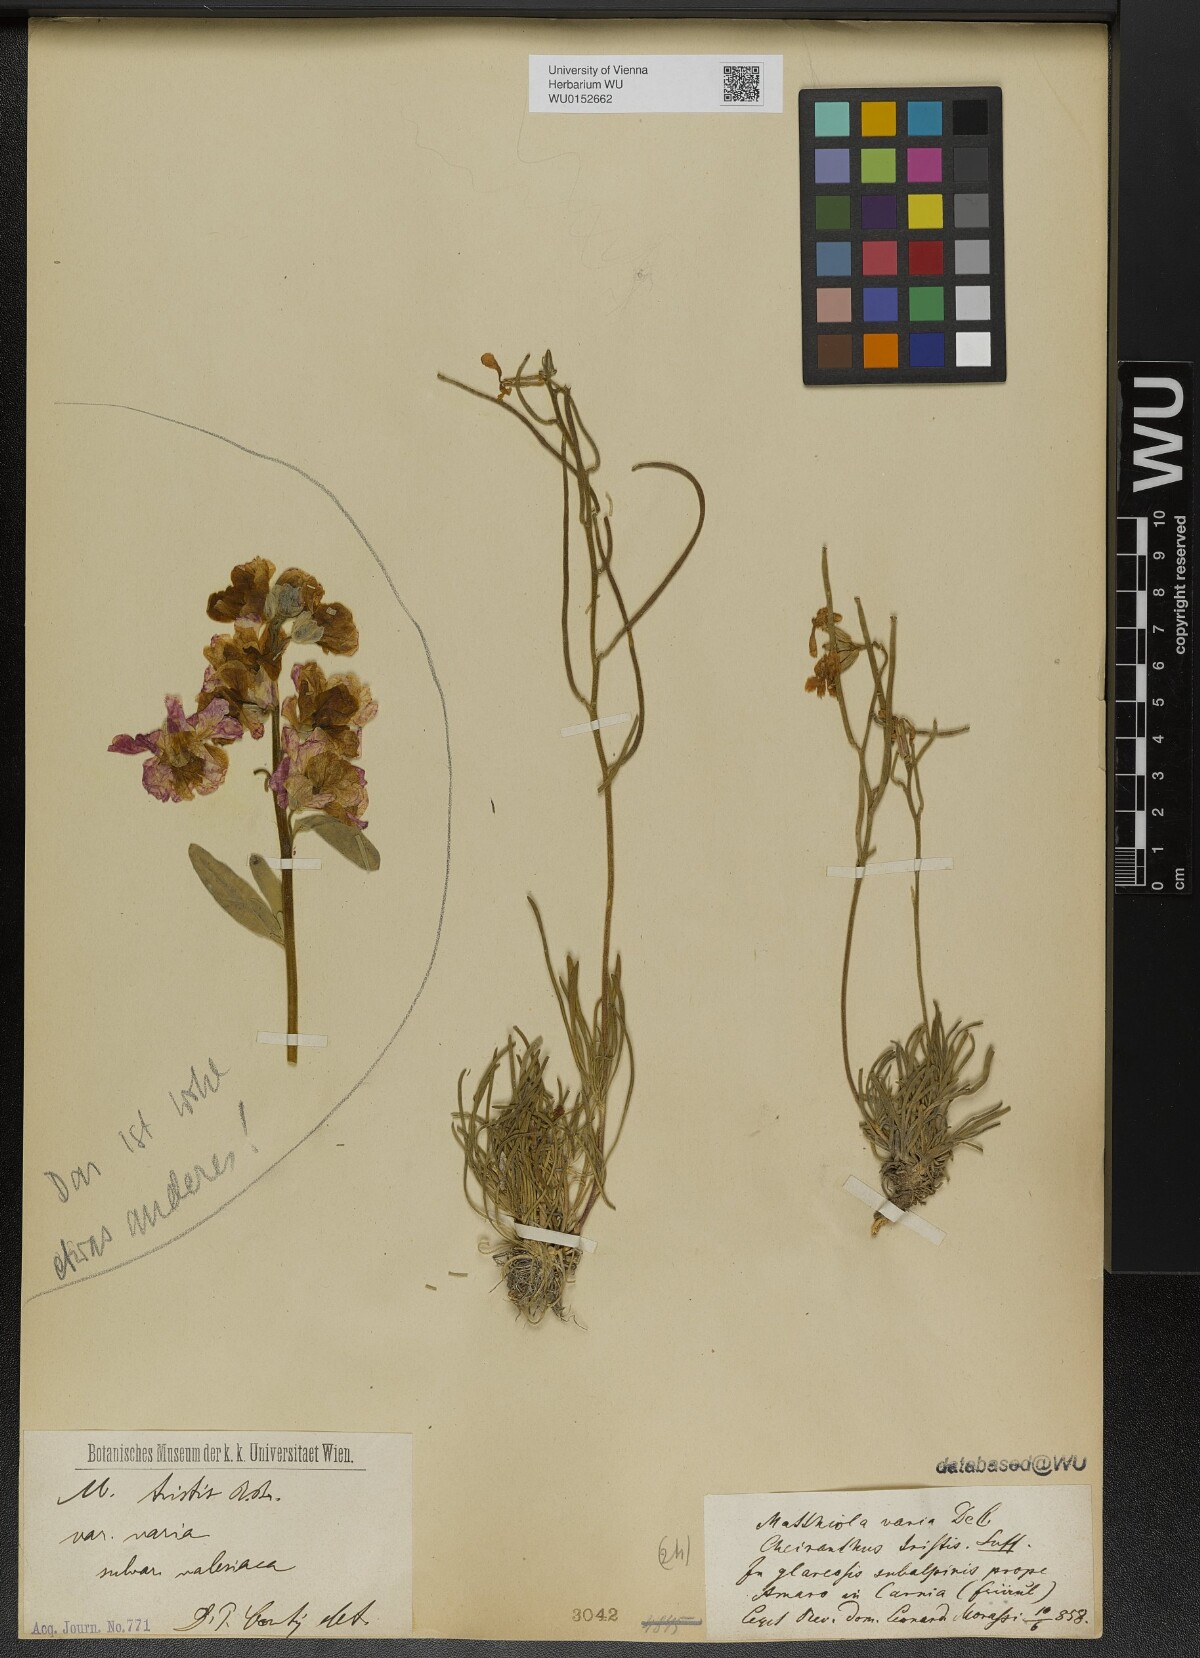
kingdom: Plantae
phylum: Tracheophyta
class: Magnoliopsida
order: Brassicales
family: Brassicaceae
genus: Matthiola
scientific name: Matthiola fruticulosa
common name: Sad stock
